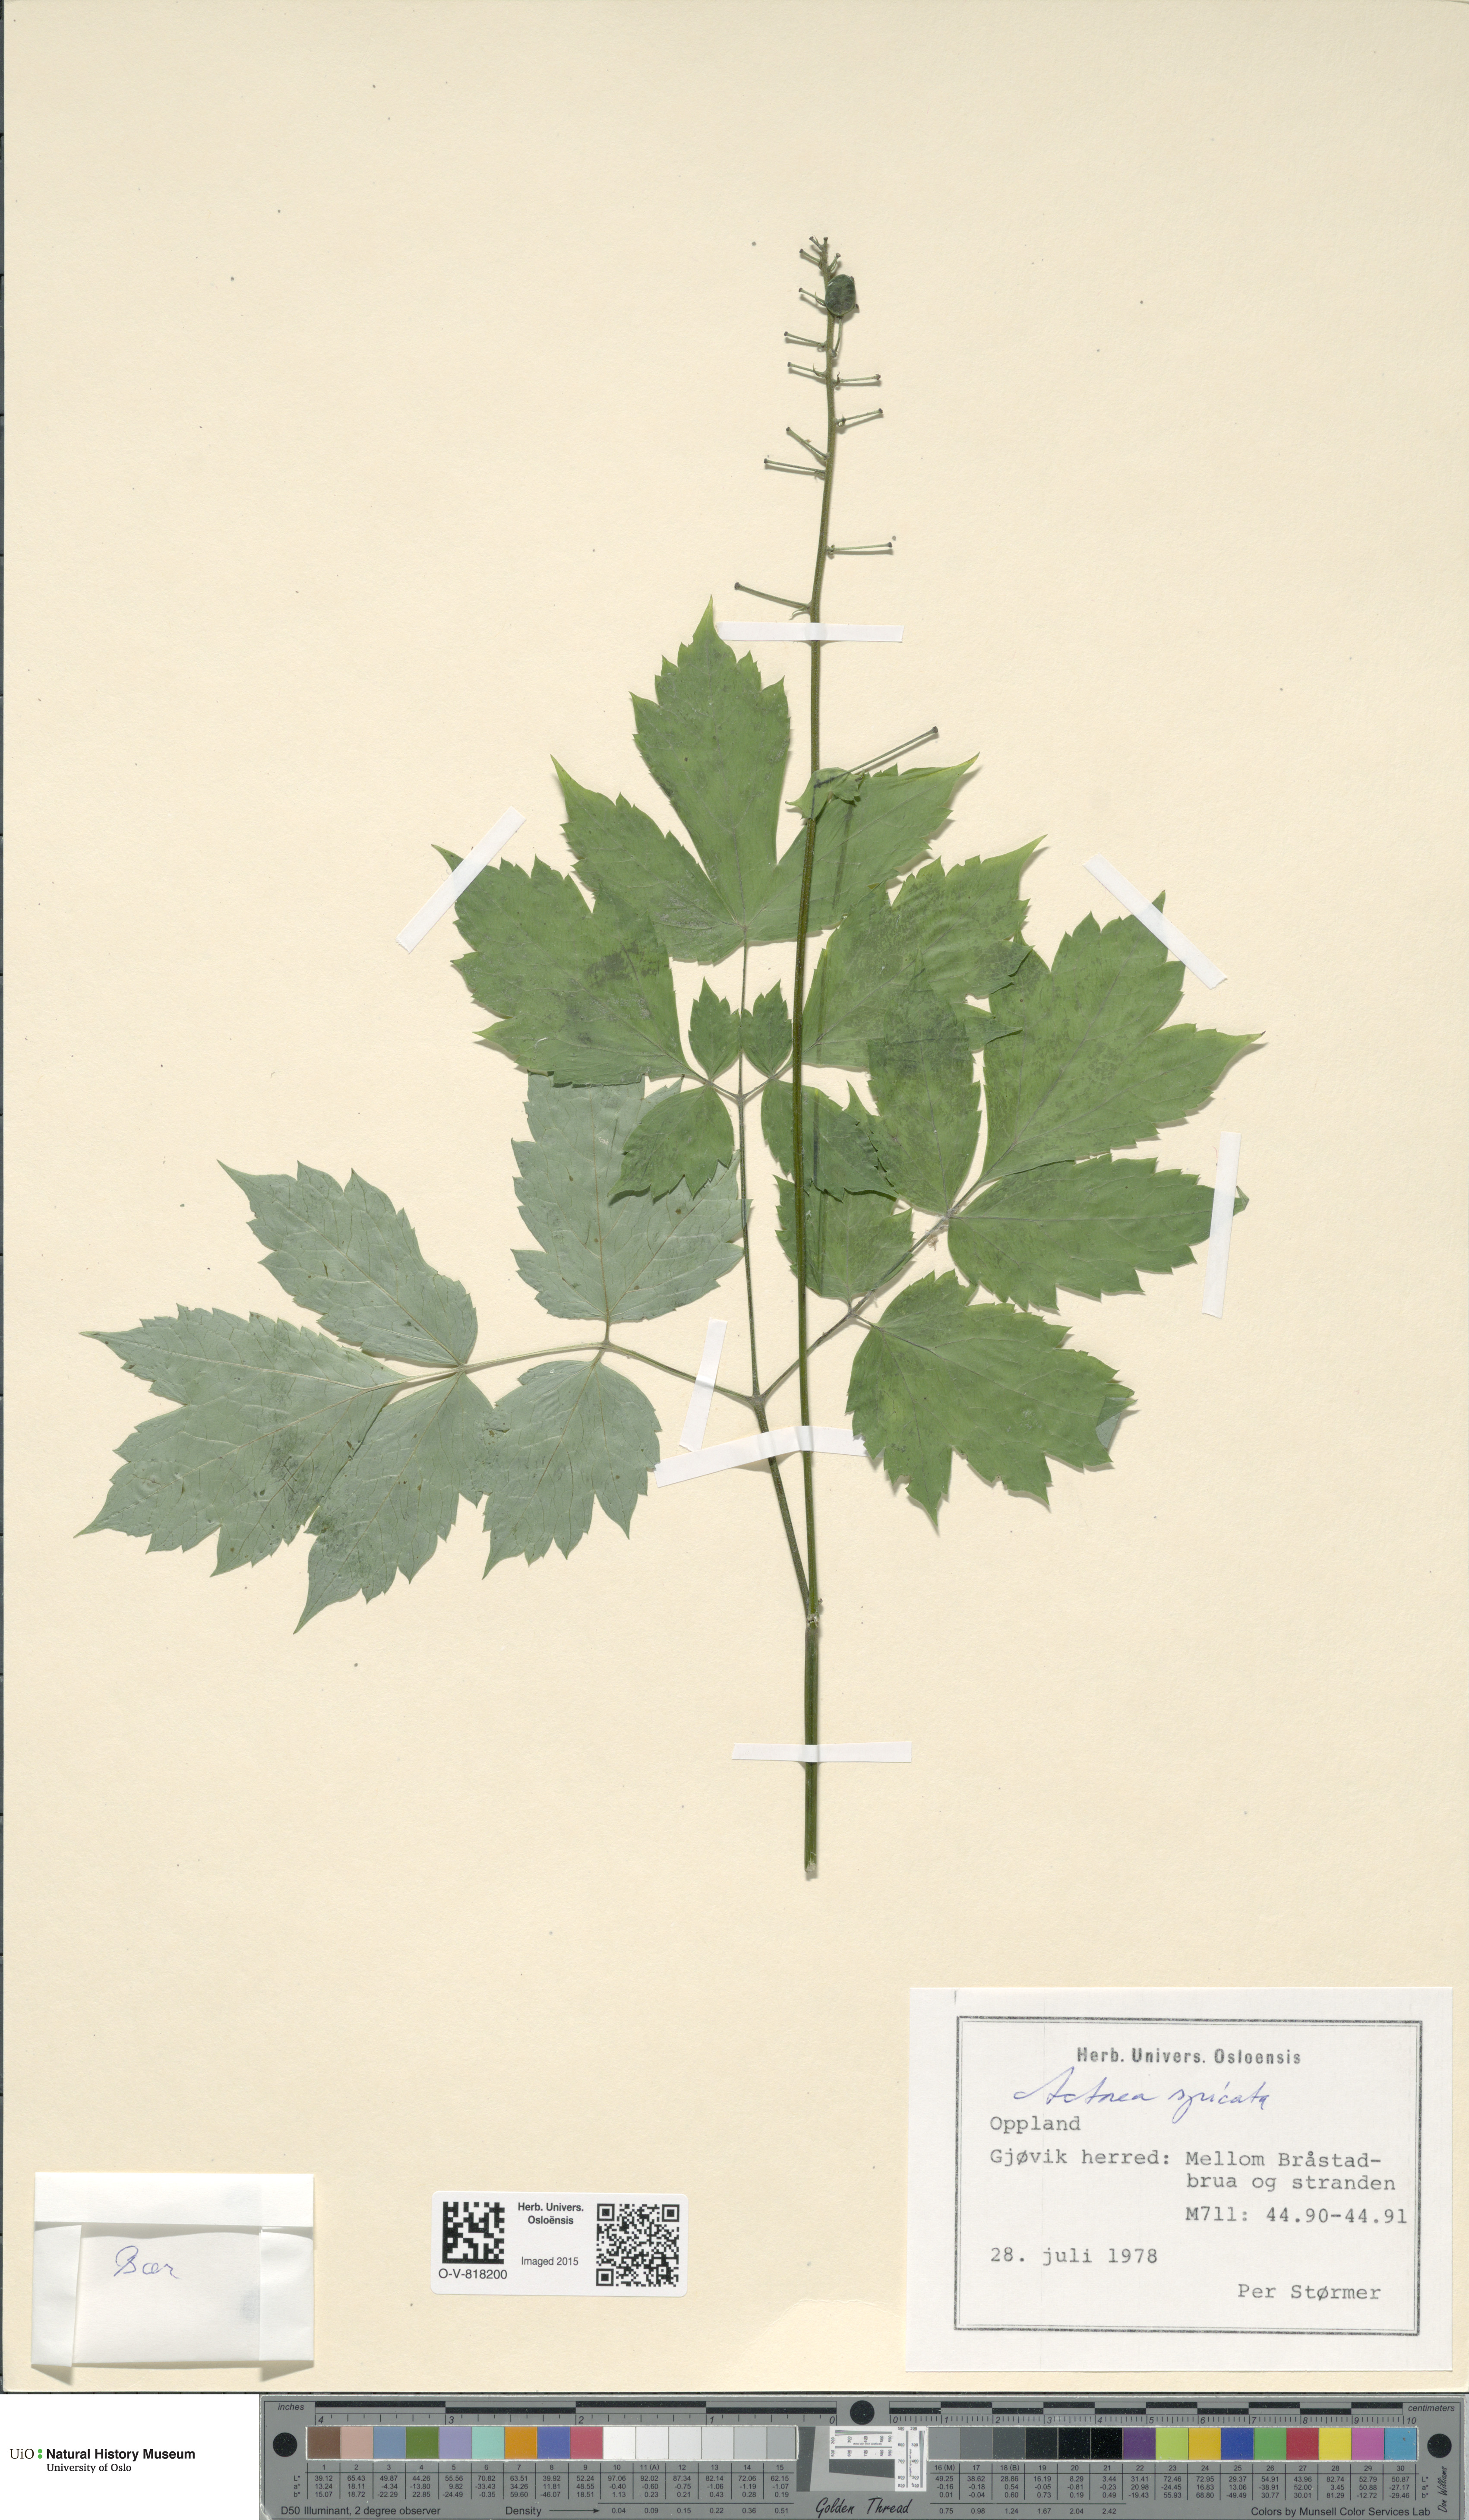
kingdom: Plantae
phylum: Tracheophyta
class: Magnoliopsida
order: Ranunculales
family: Ranunculaceae
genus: Actaea
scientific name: Actaea spicata
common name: Baneberry
